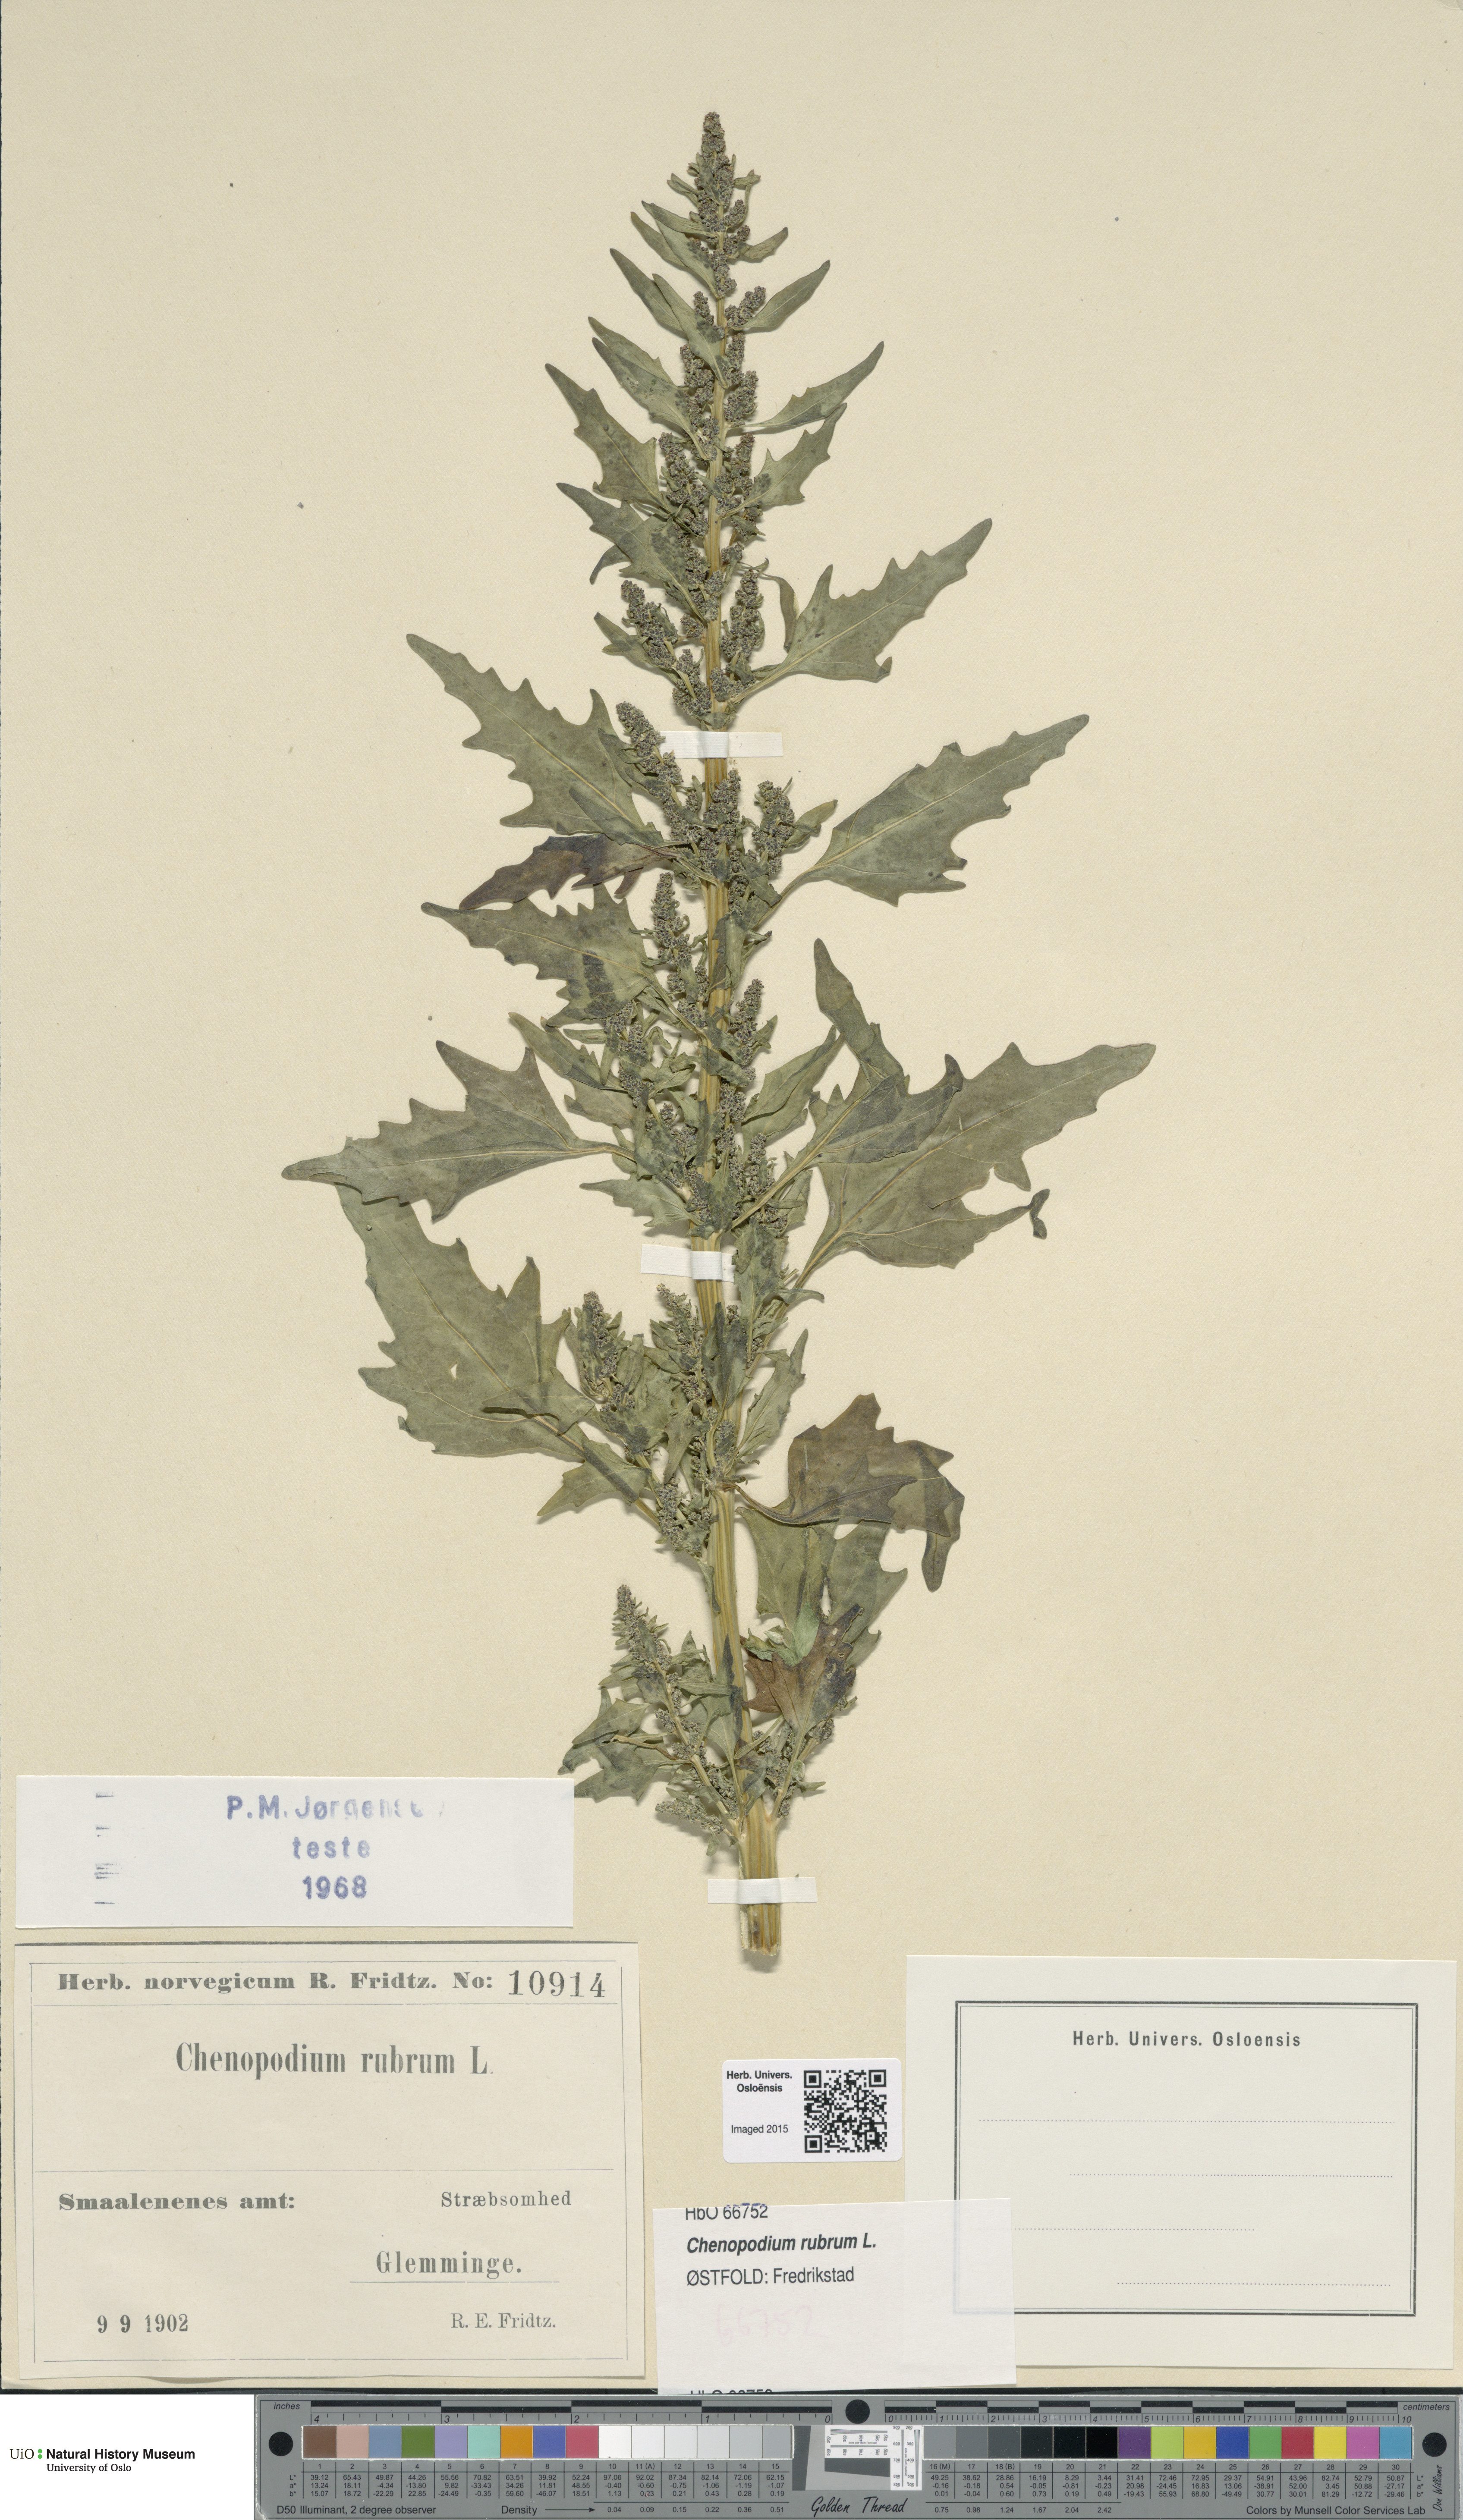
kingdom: Plantae
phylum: Tracheophyta
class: Magnoliopsida
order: Caryophyllales
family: Amaranthaceae
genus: Oxybasis
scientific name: Oxybasis rubra
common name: Red goosefoot
